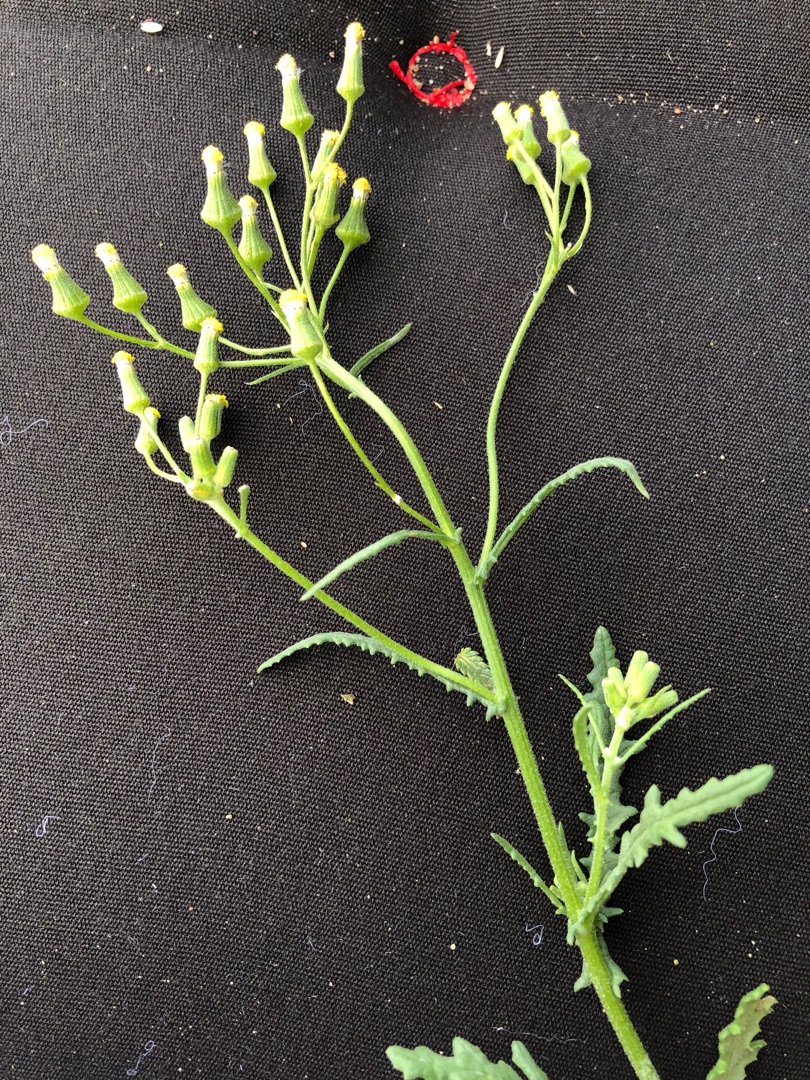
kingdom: Plantae
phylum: Tracheophyta
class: Magnoliopsida
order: Asterales
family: Asteraceae
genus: Senecio
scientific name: Senecio sylvaticus
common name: Skov-brandbæger
